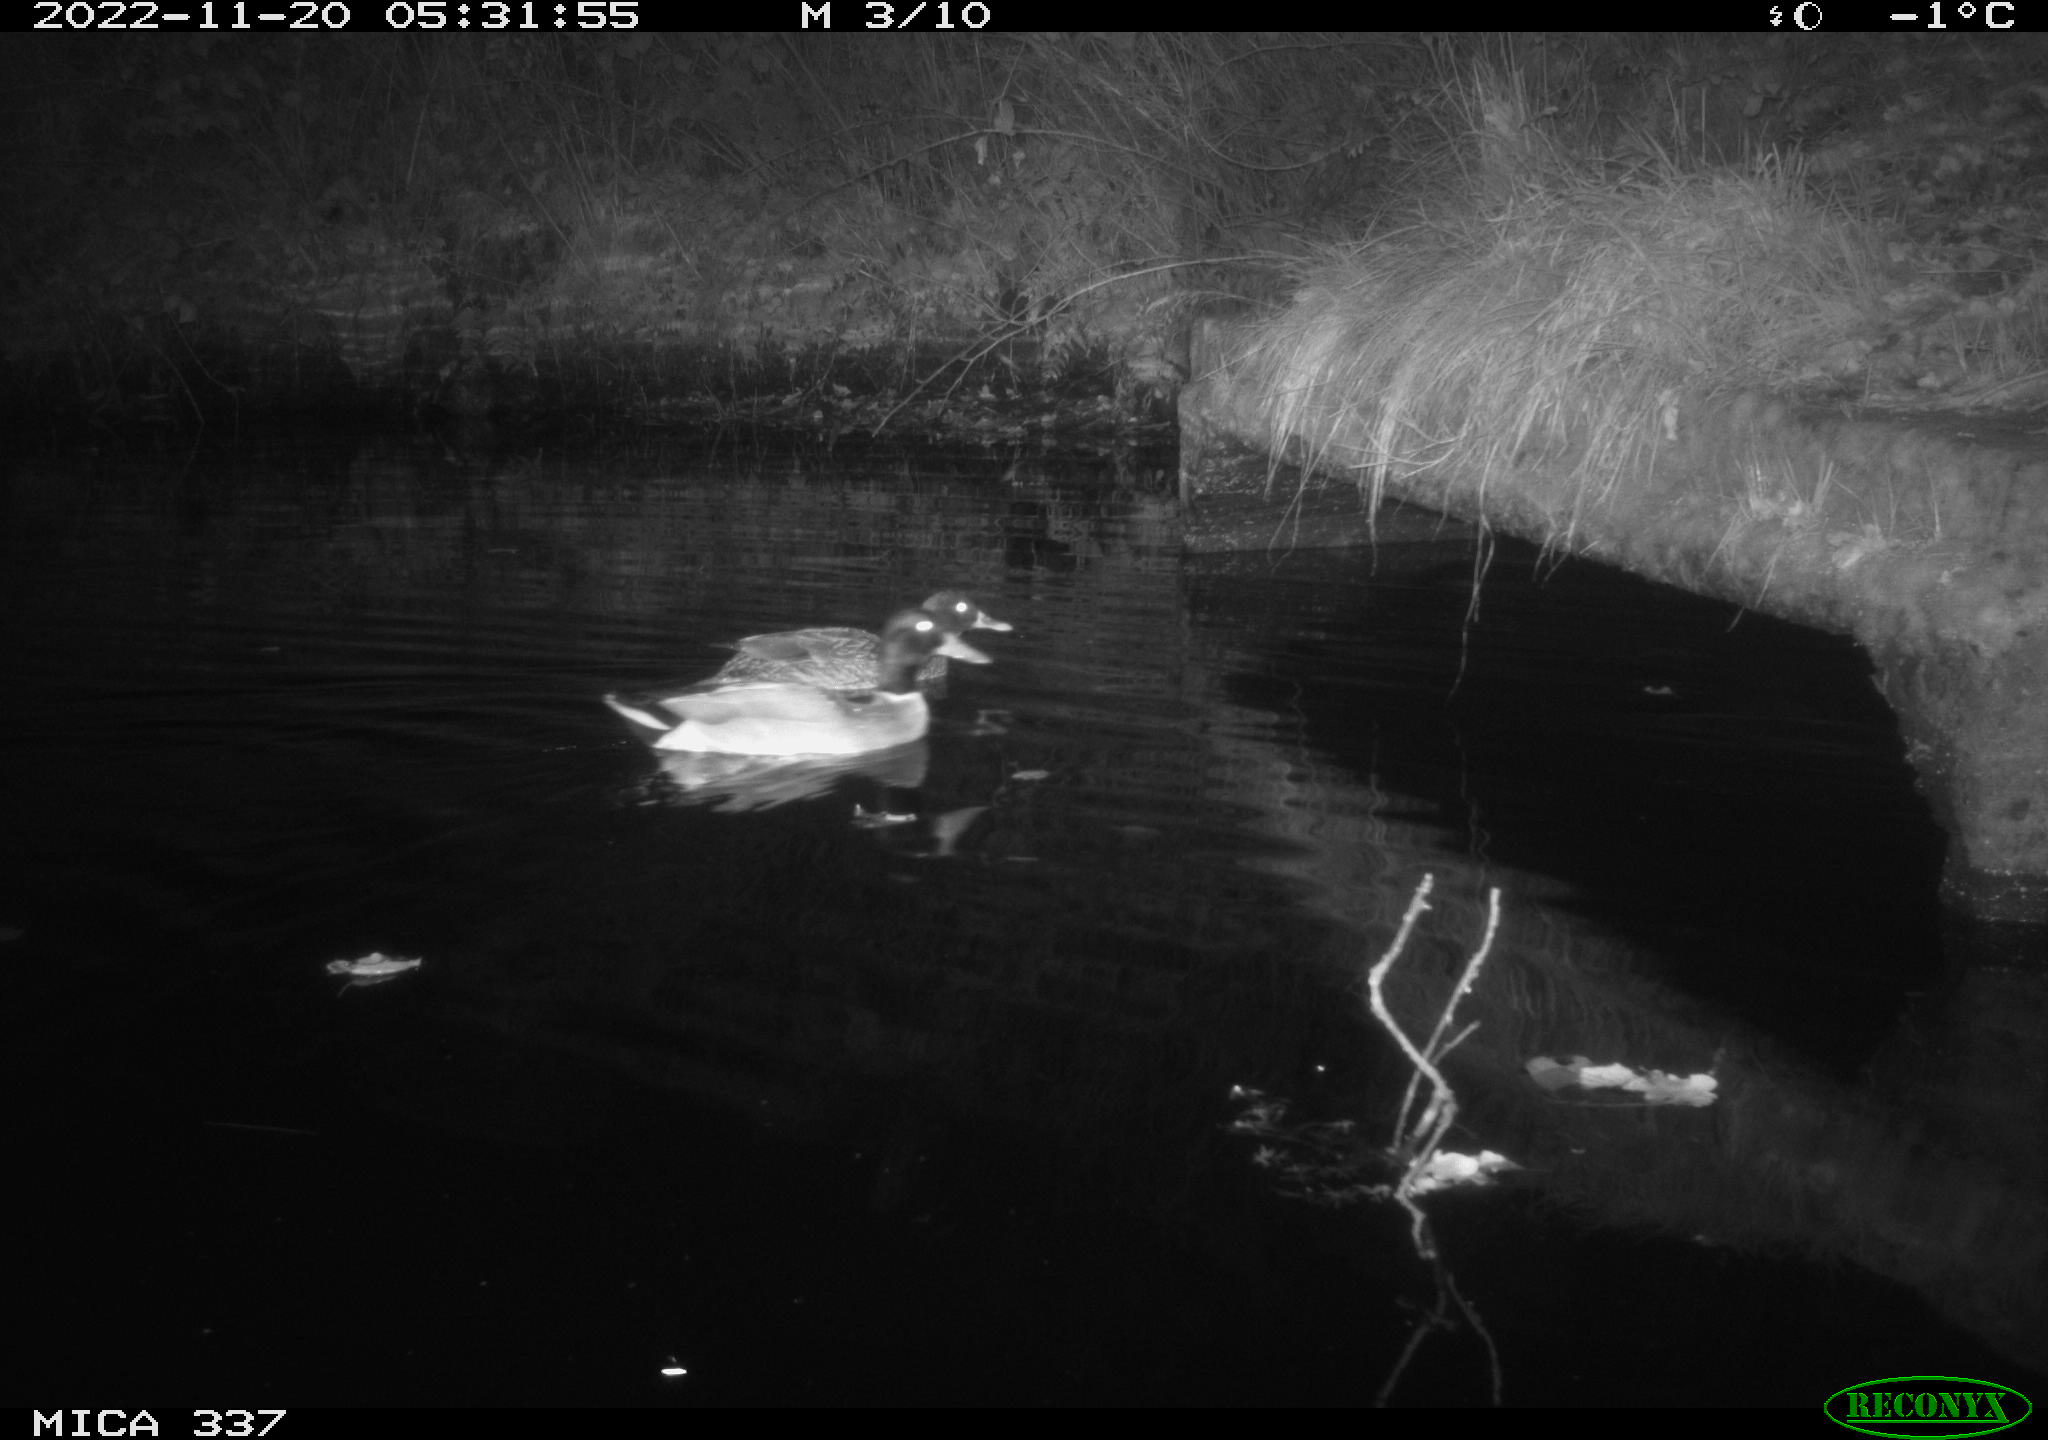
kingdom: Animalia
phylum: Chordata
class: Aves
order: Anseriformes
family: Anatidae
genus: Anas
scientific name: Anas platyrhynchos
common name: Mallard
